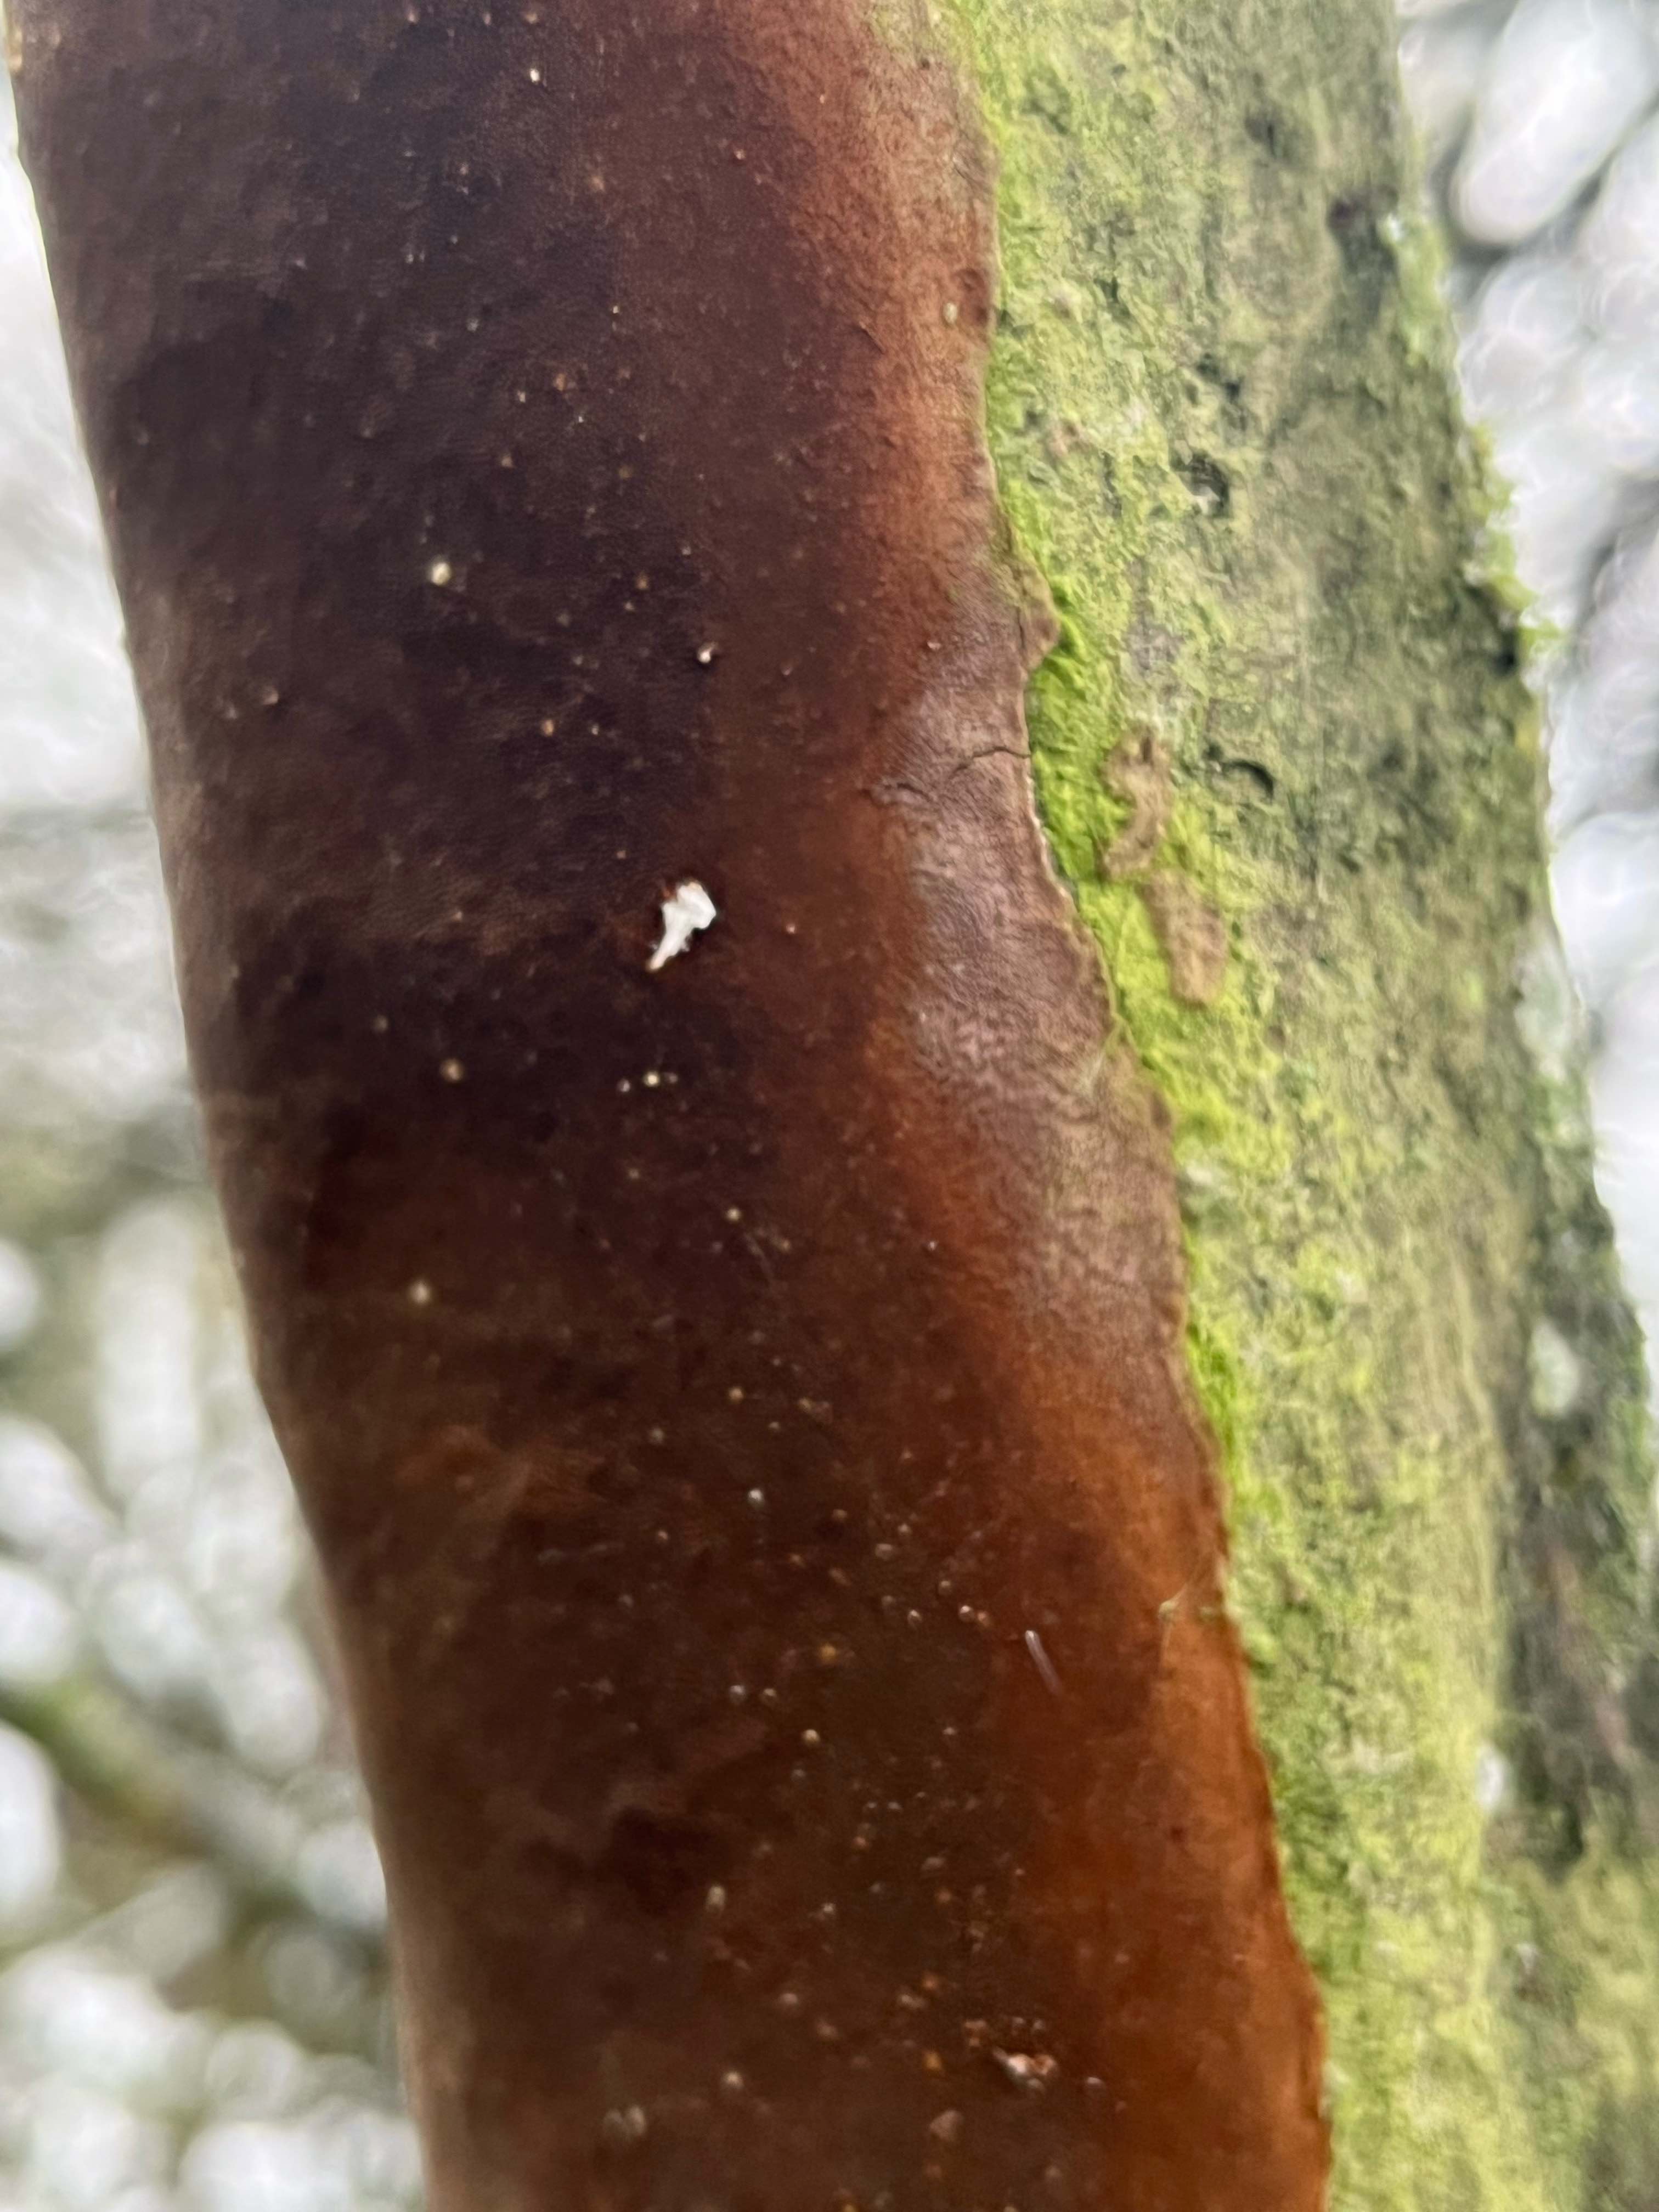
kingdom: Fungi
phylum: Basidiomycota
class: Agaricomycetes
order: Hymenochaetales
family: Hymenochaetaceae
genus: Fomitiporia
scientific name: Fomitiporia punctata
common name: pude-ildporesvamp
